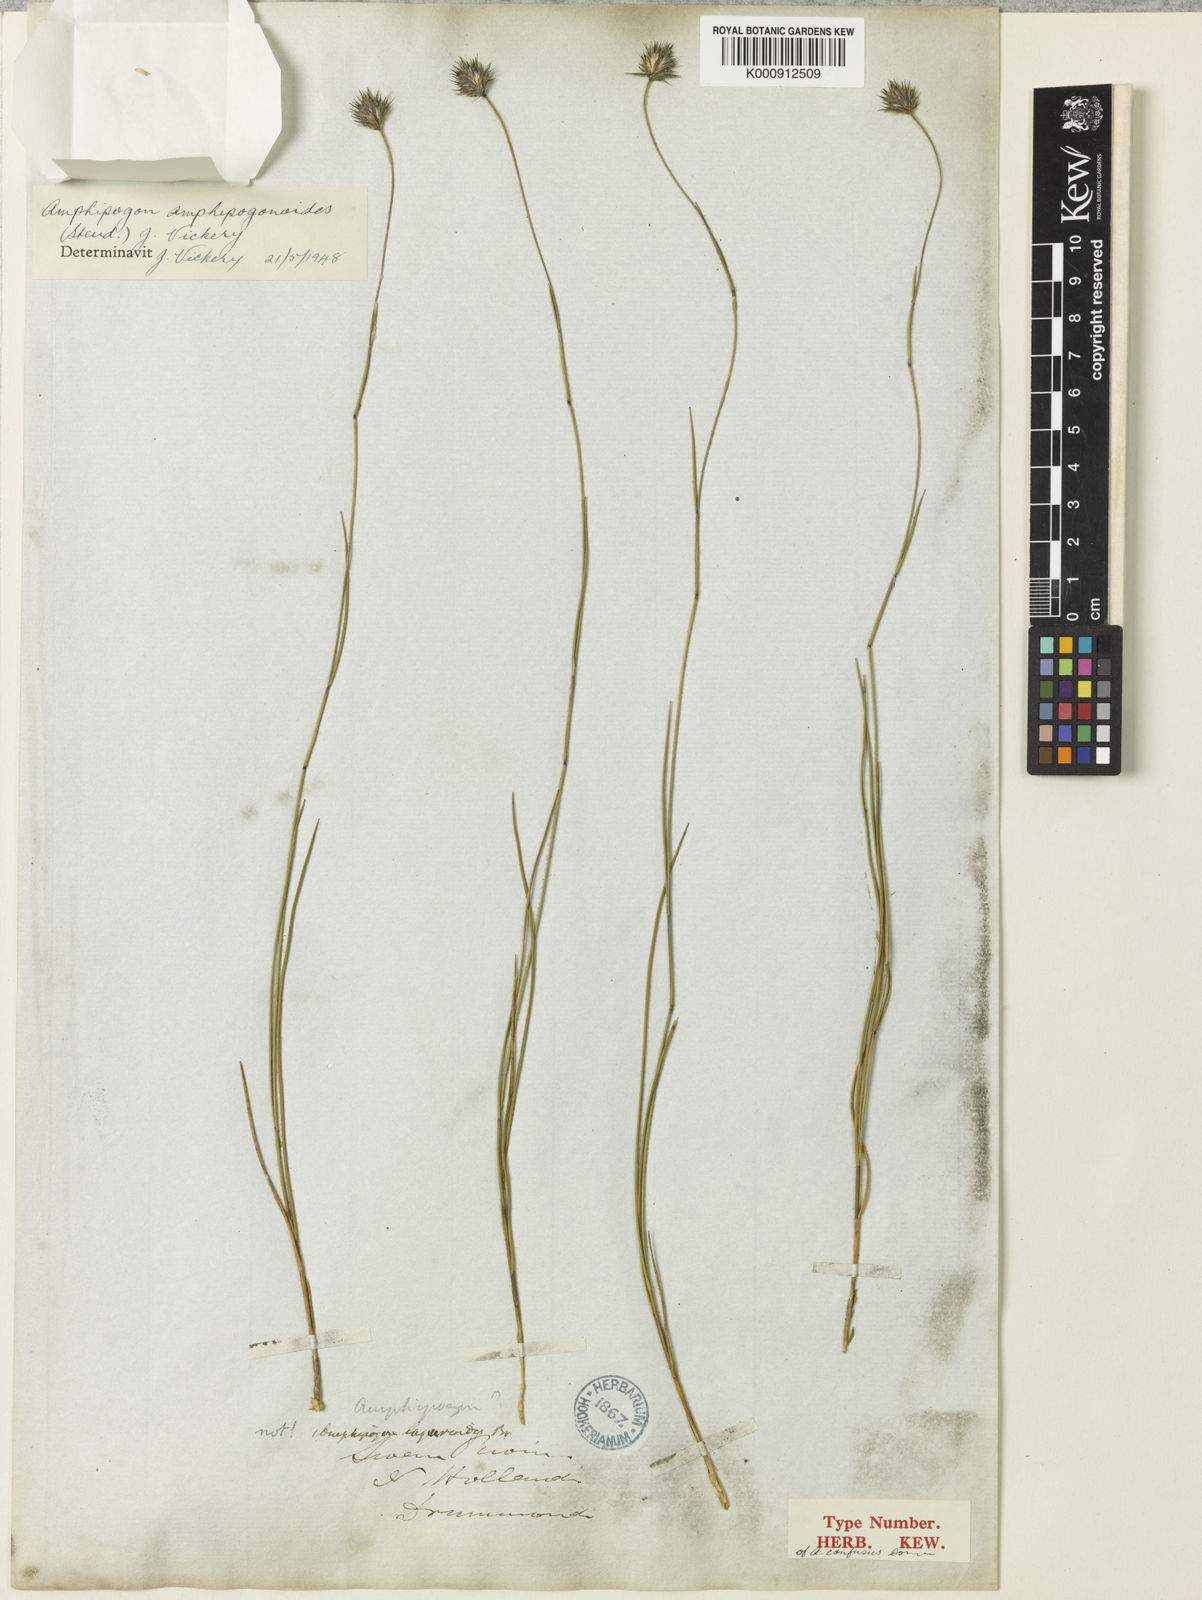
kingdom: Plantae
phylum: Tracheophyta
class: Liliopsida
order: Poales
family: Poaceae
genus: Amphipogon
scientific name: Amphipogon amphipogonoides
